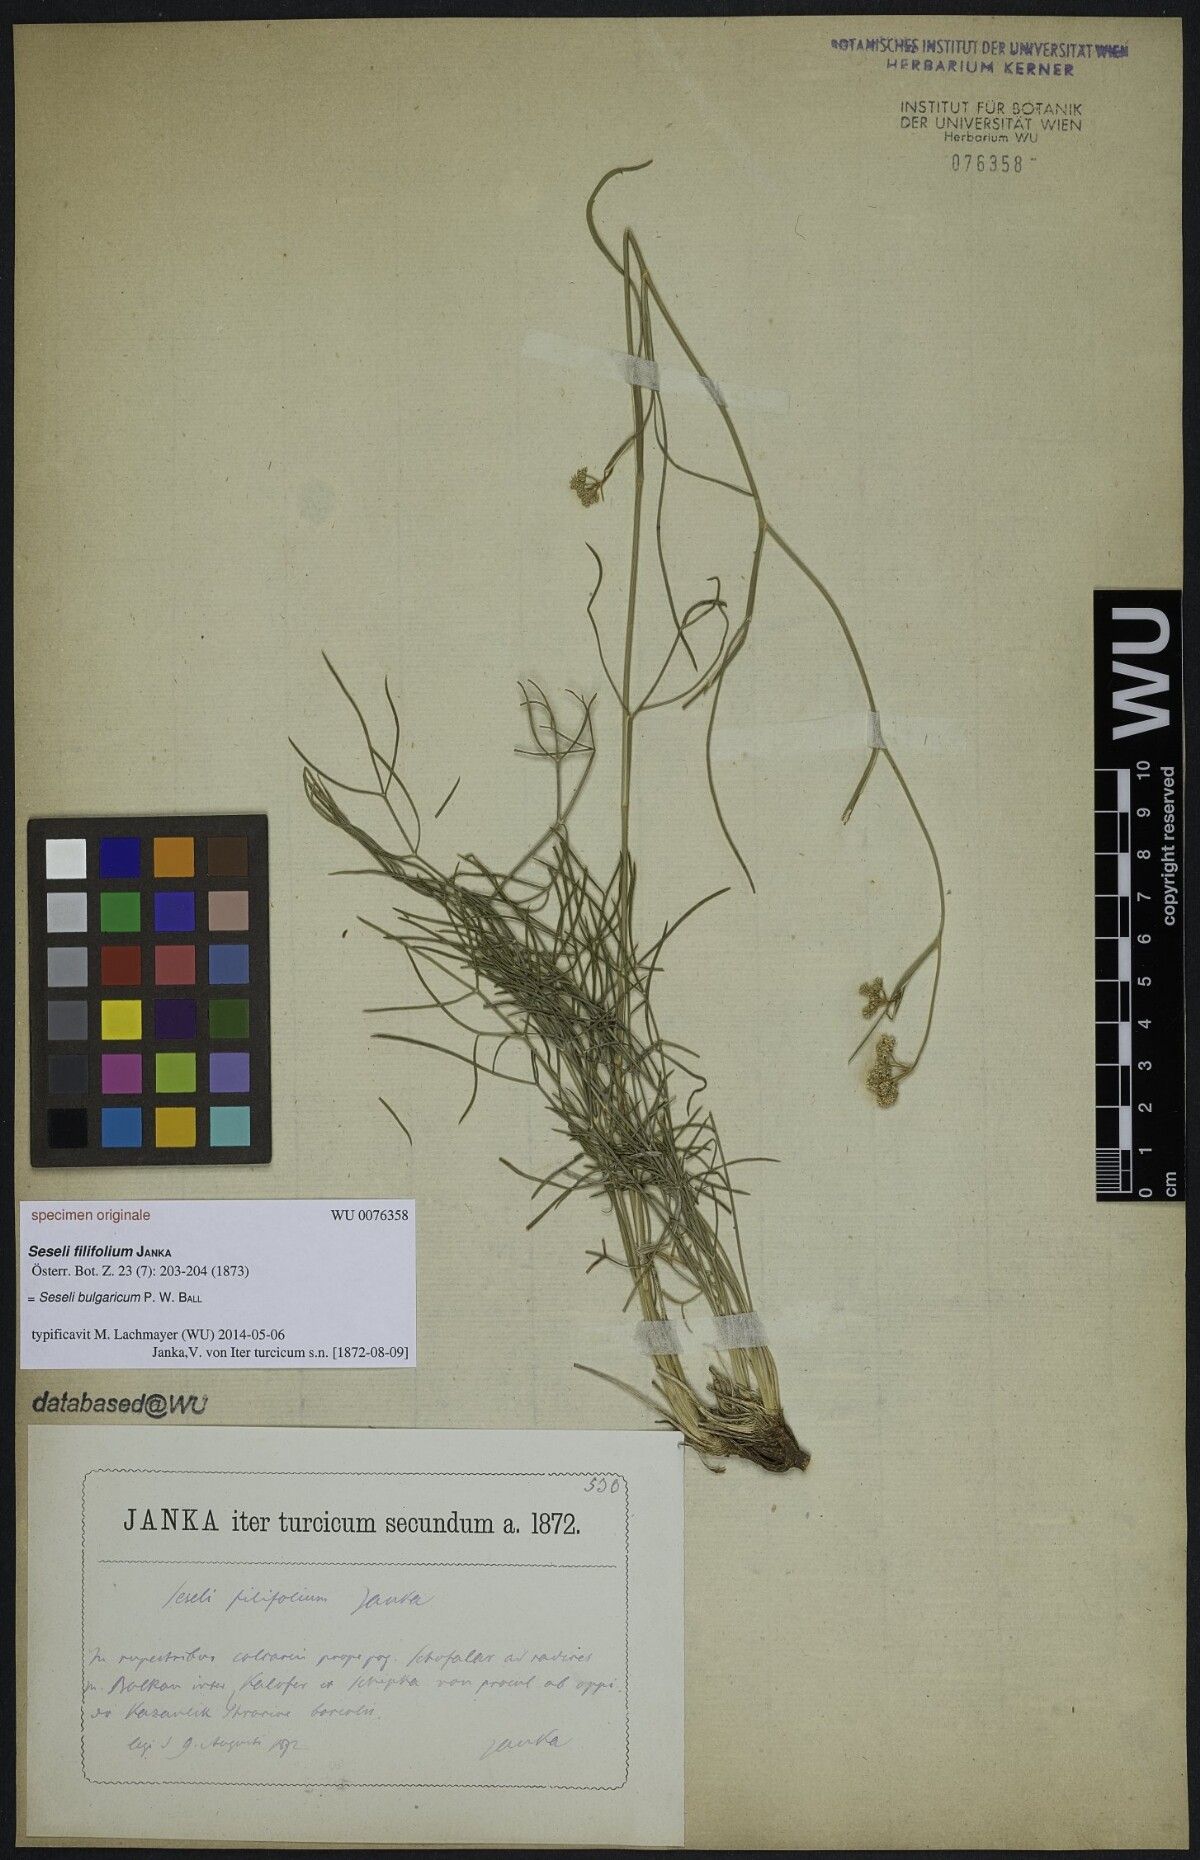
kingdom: Plantae
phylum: Tracheophyta
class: Magnoliopsida
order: Apiales
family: Apiaceae
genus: Seseli
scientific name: Seseli bulgaricum
